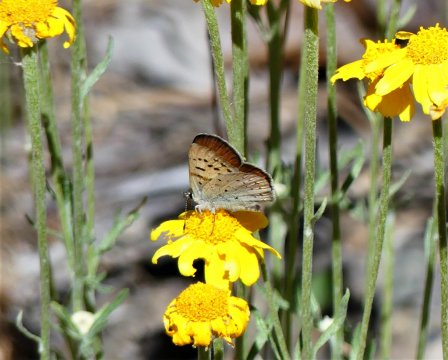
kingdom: Animalia
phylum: Arthropoda
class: Insecta
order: Lepidoptera
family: Sesiidae
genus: Sesia
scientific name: Sesia Lycaena helloides
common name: Purplish Copper
